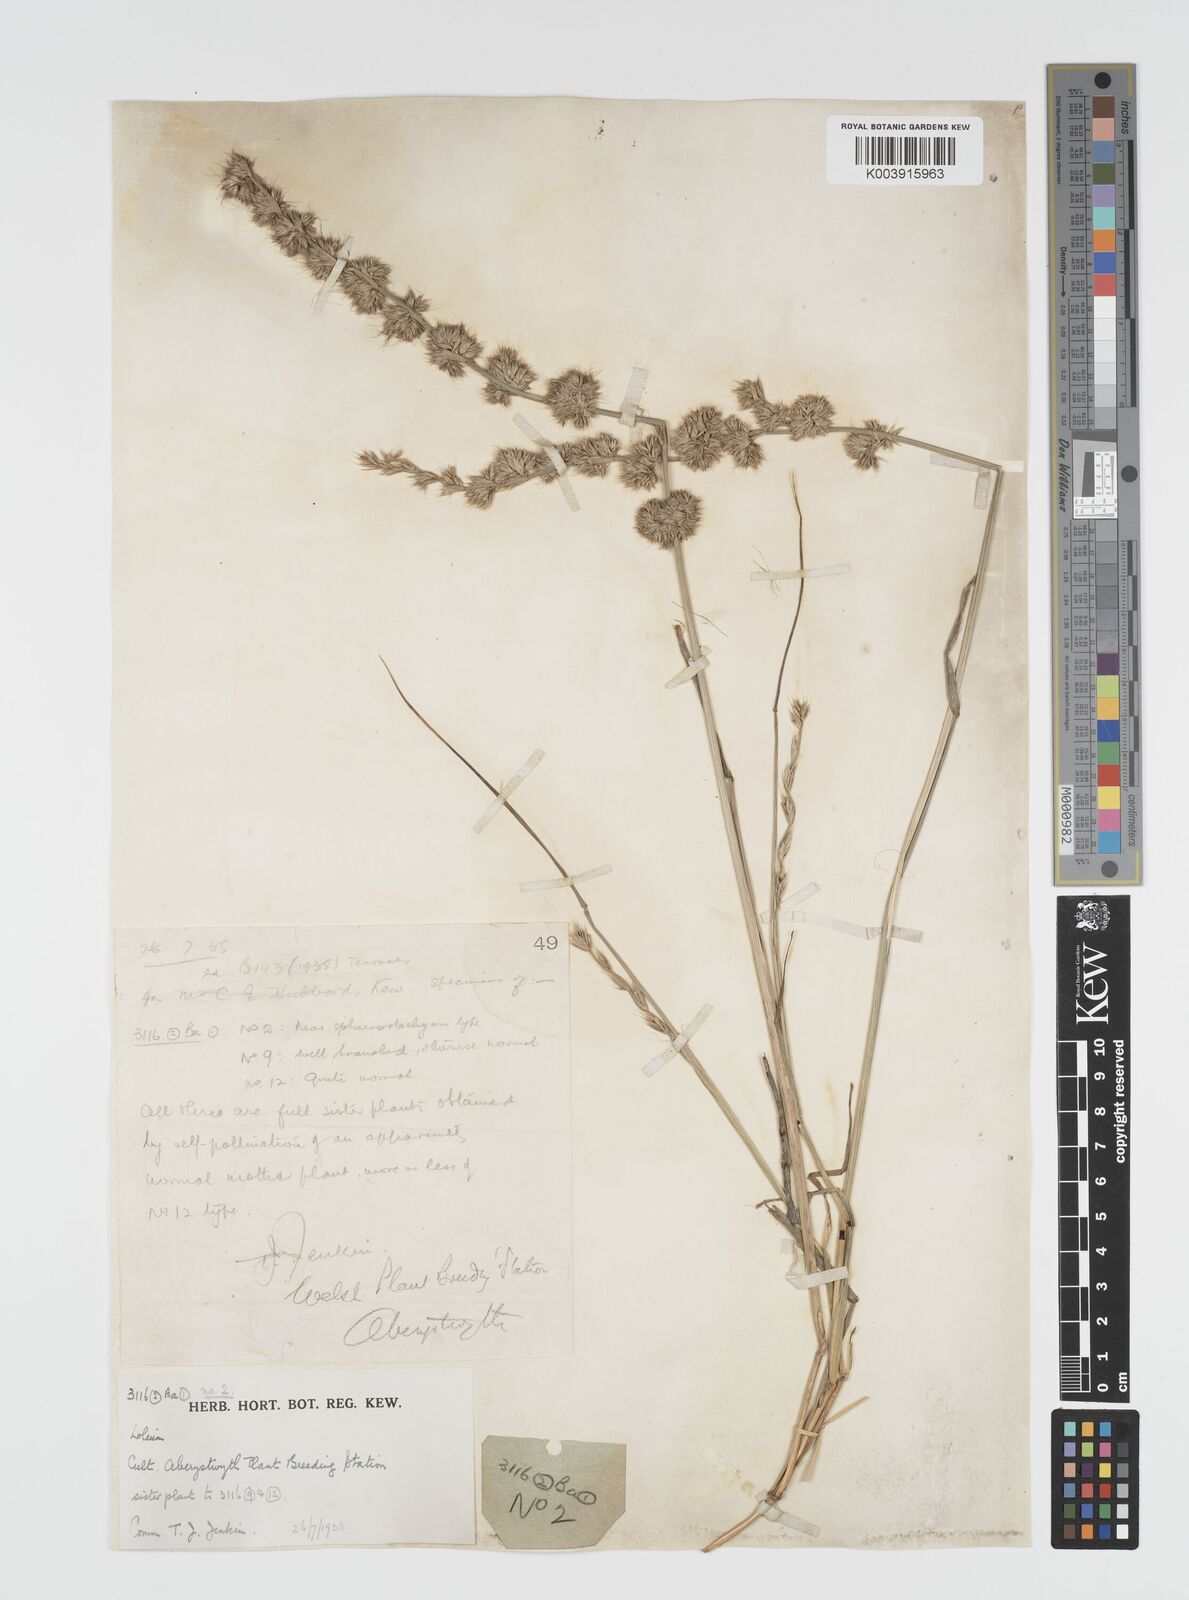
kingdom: Plantae
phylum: Tracheophyta
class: Liliopsida
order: Poales
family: Poaceae
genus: Lolium
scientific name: Lolium multiflorum
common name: Annual ryegrass
